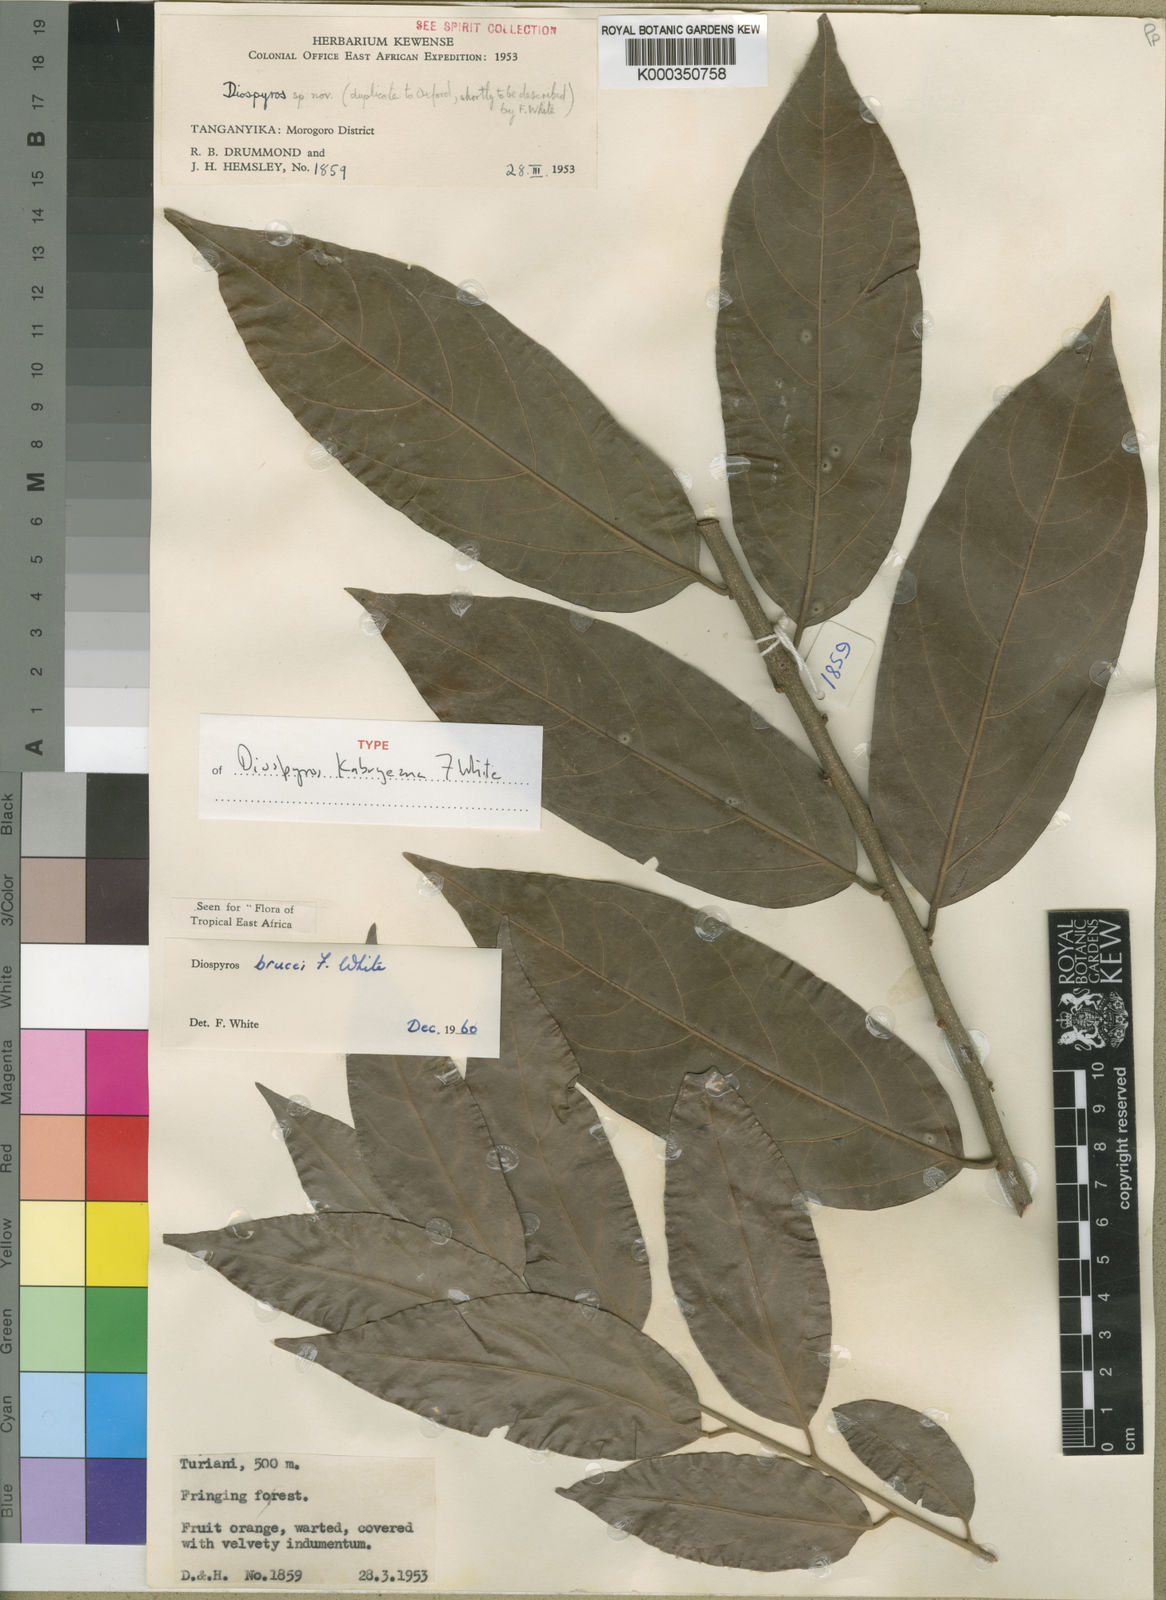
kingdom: Plantae
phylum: Tracheophyta
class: Magnoliopsida
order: Ericales
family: Ebenaceae
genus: Diospyros
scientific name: Diospyros kabuyeana
